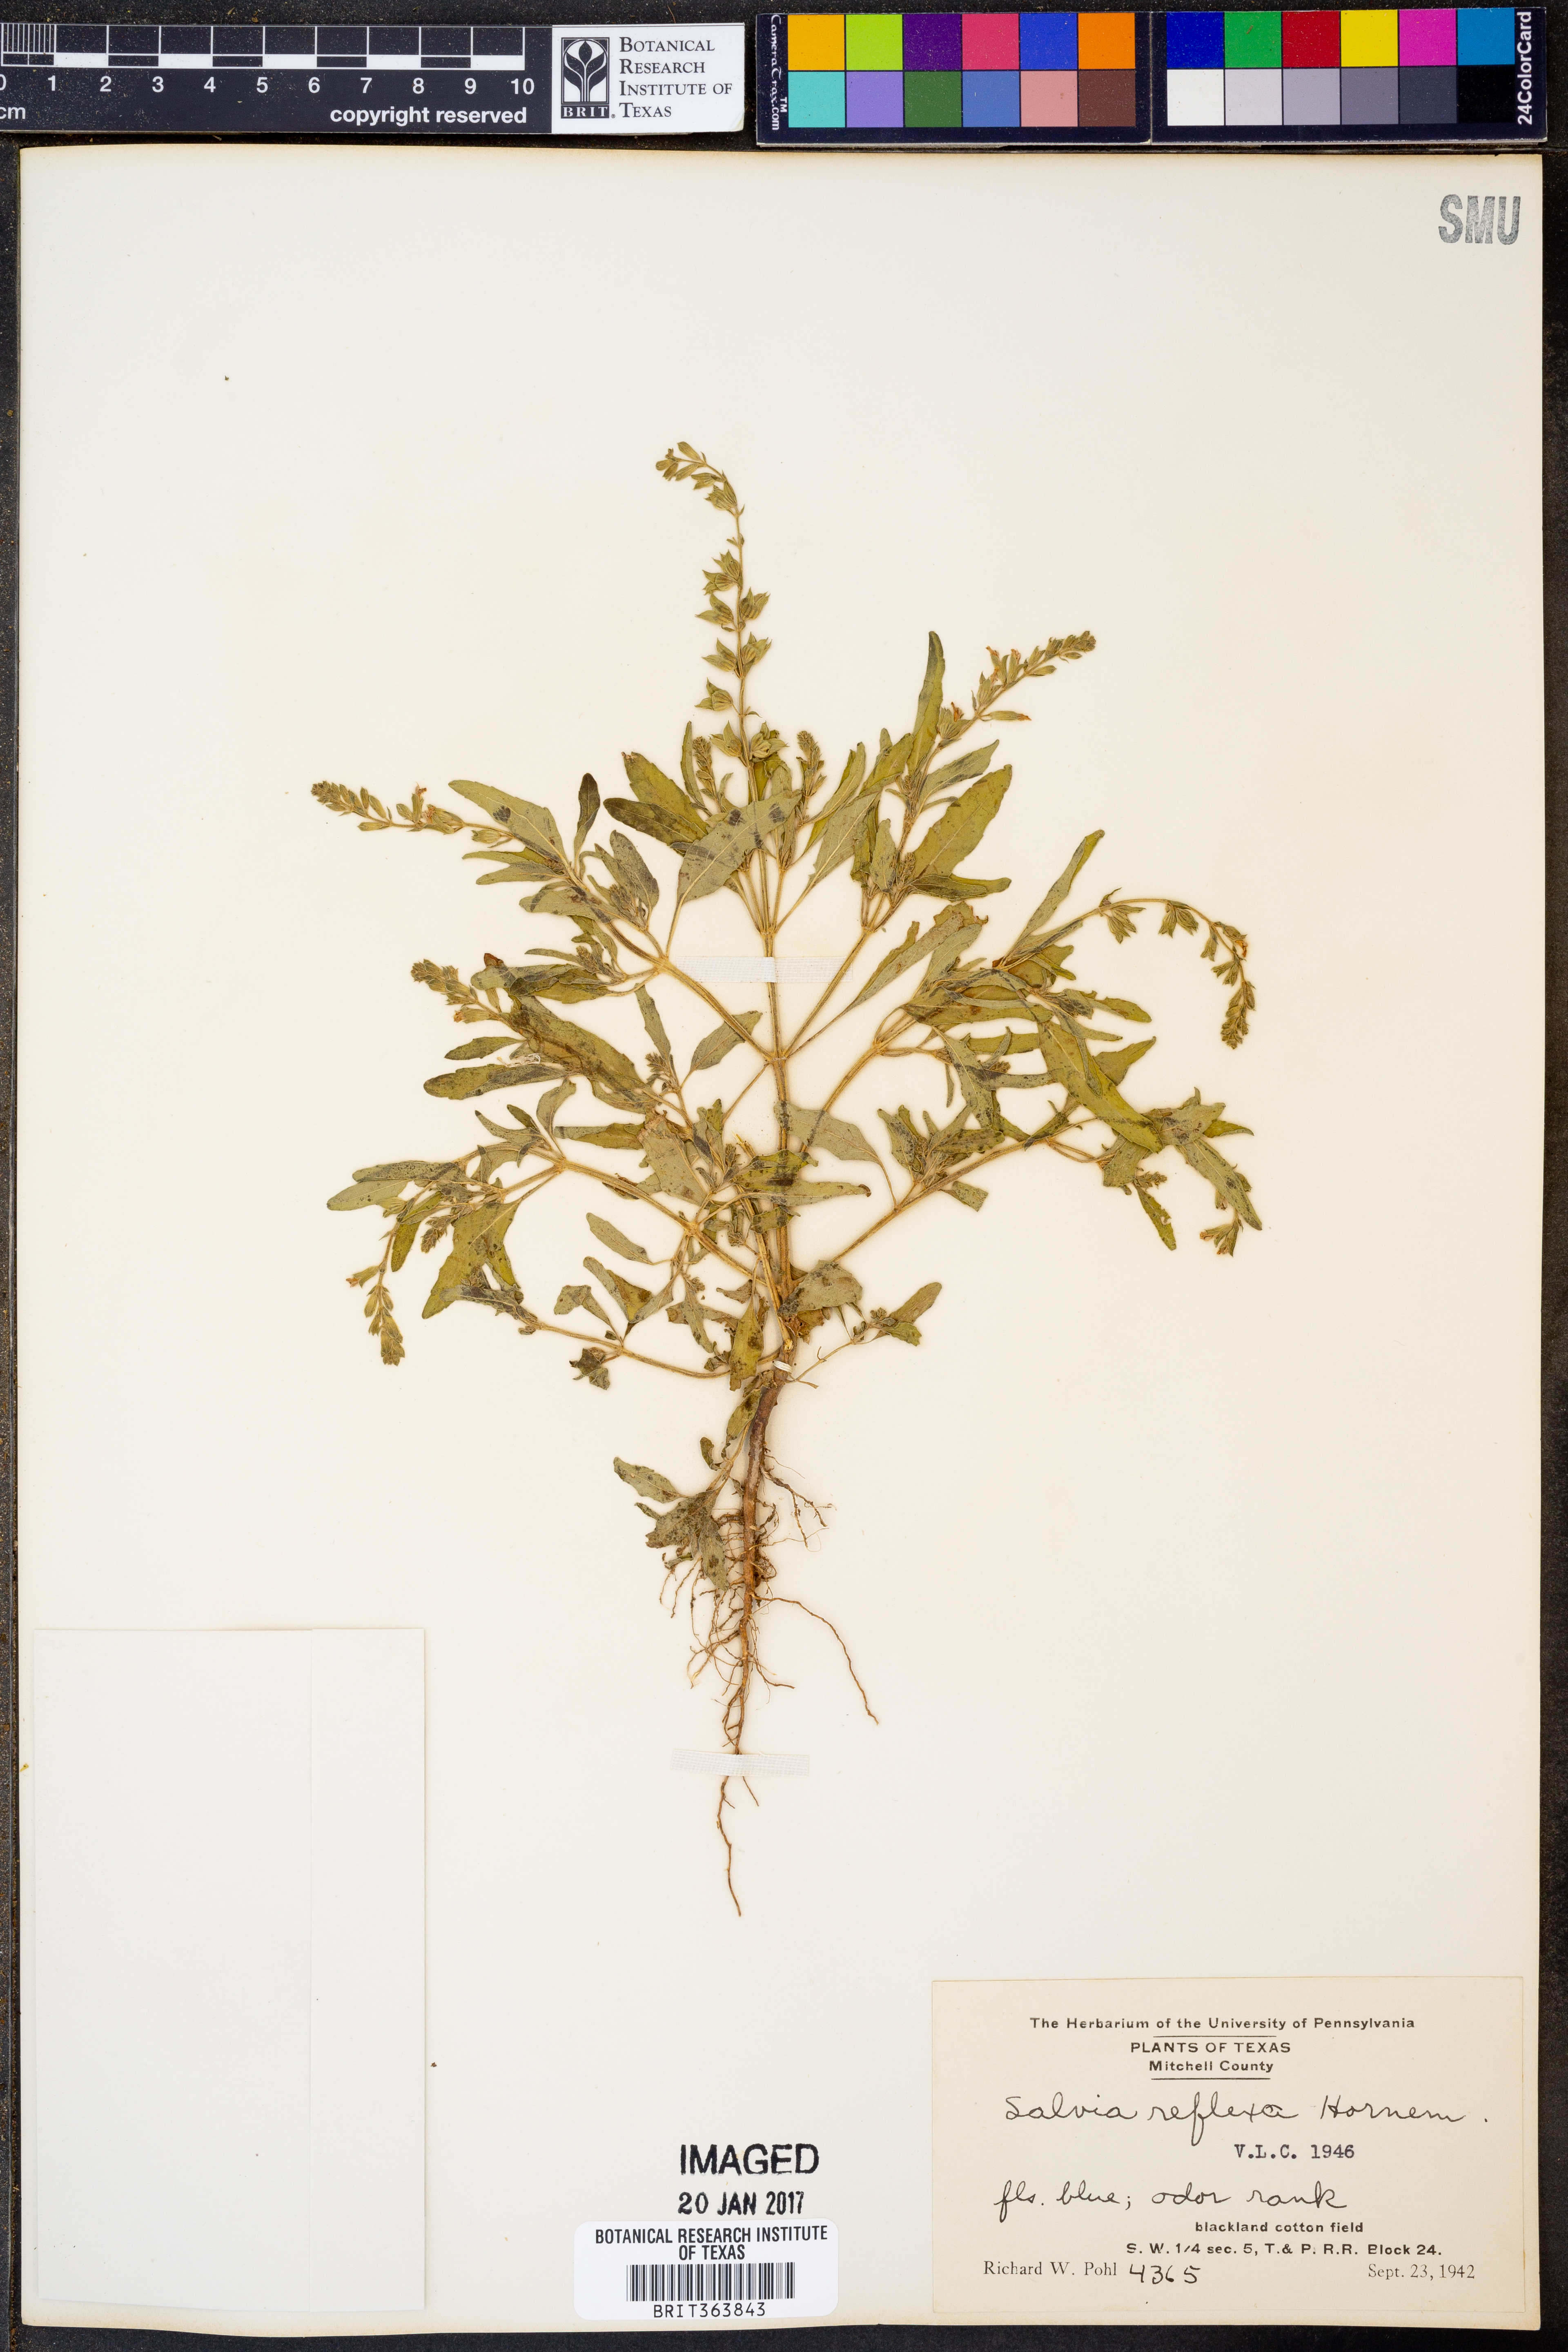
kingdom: Plantae
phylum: Tracheophyta
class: Magnoliopsida
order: Lamiales
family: Lamiaceae
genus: Salvia
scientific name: Salvia reflexa
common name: Mintweed
